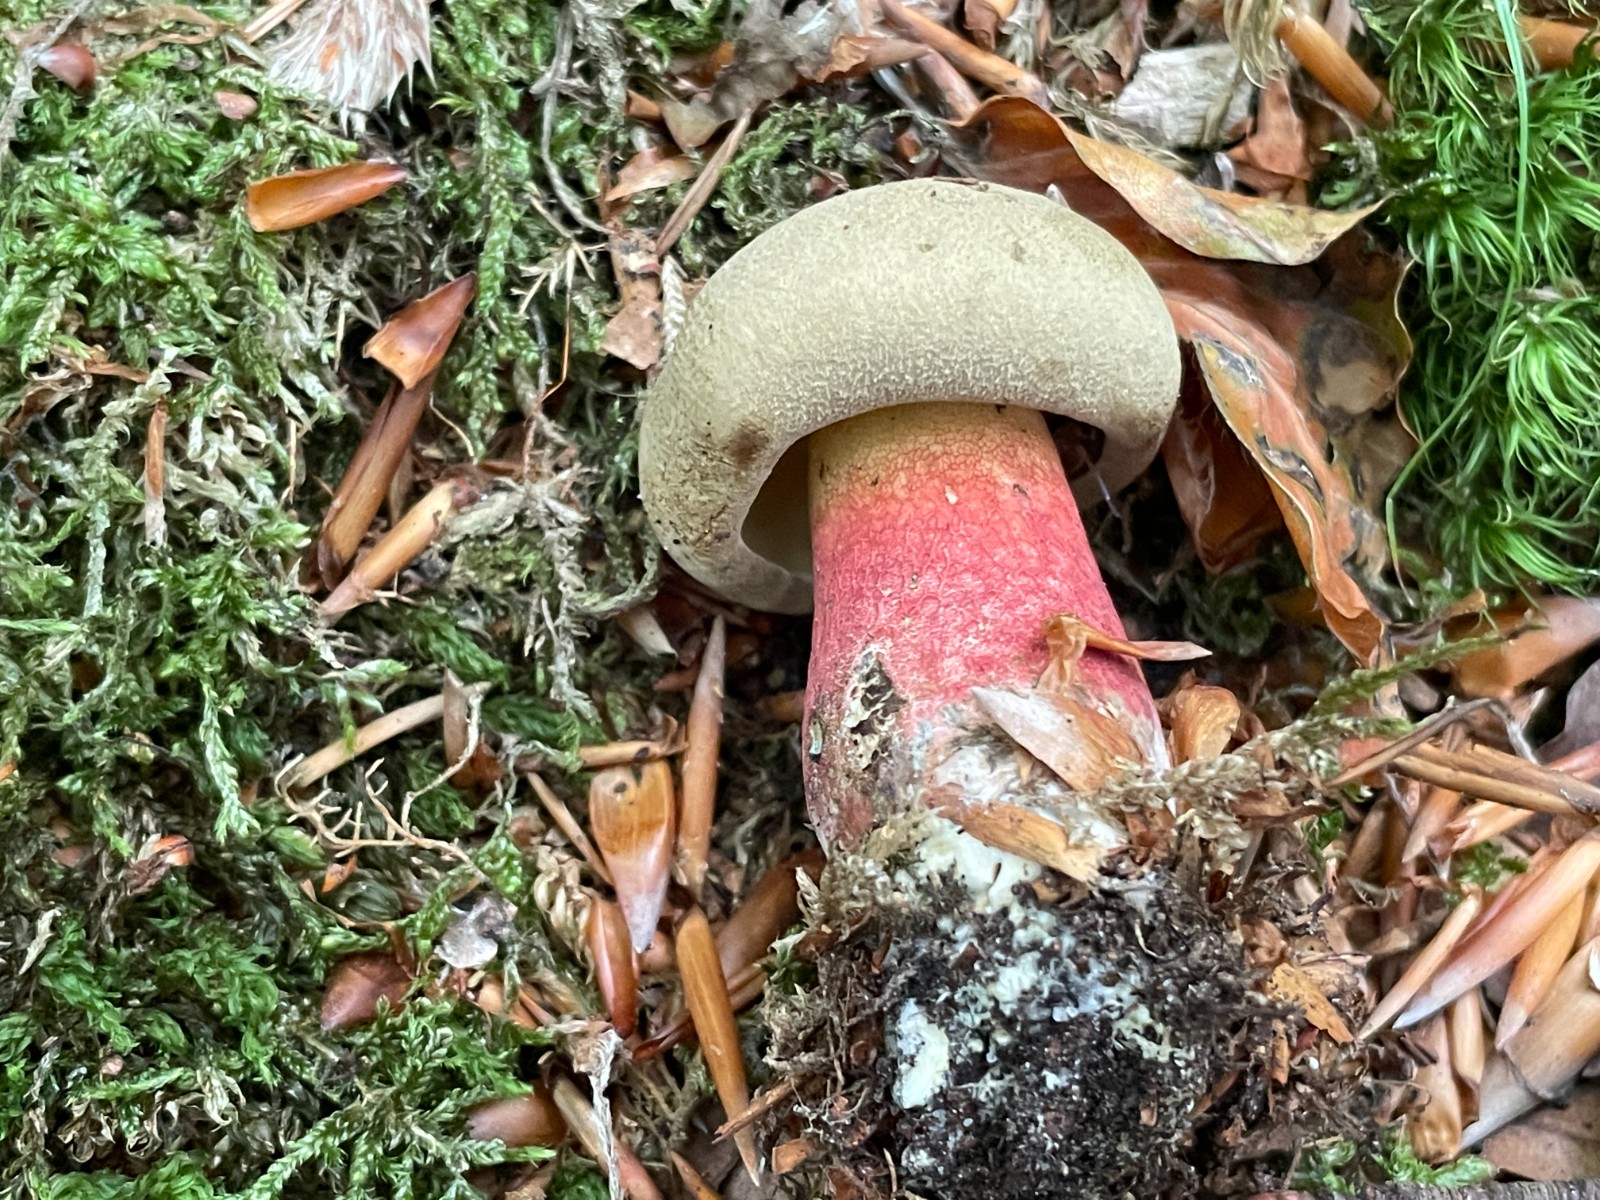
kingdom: Fungi
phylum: Basidiomycota
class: Agaricomycetes
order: Boletales
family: Boletaceae
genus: Caloboletus
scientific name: Caloboletus calopus
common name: skønfodet rørhat
